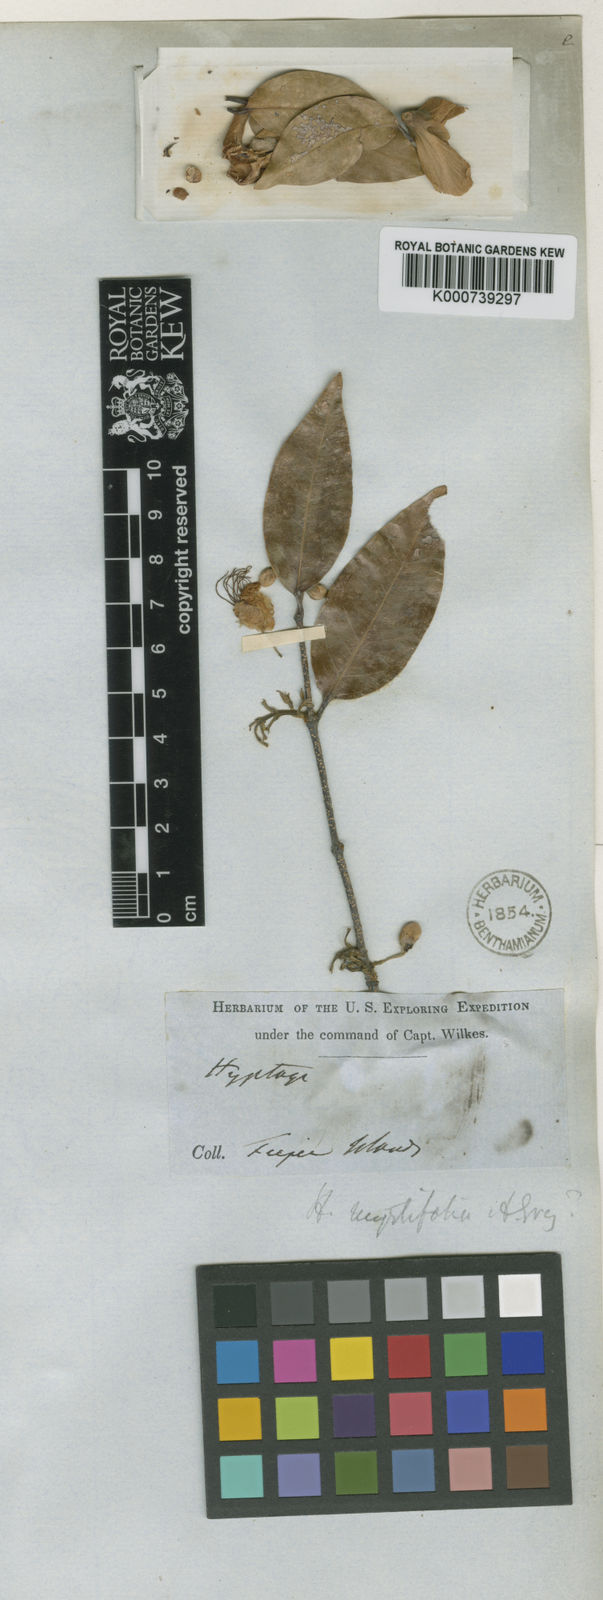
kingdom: Plantae
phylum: Tracheophyta
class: Magnoliopsida
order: Malpighiales
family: Malpighiaceae
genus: Hiptage
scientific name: Hiptage myrtifolia
